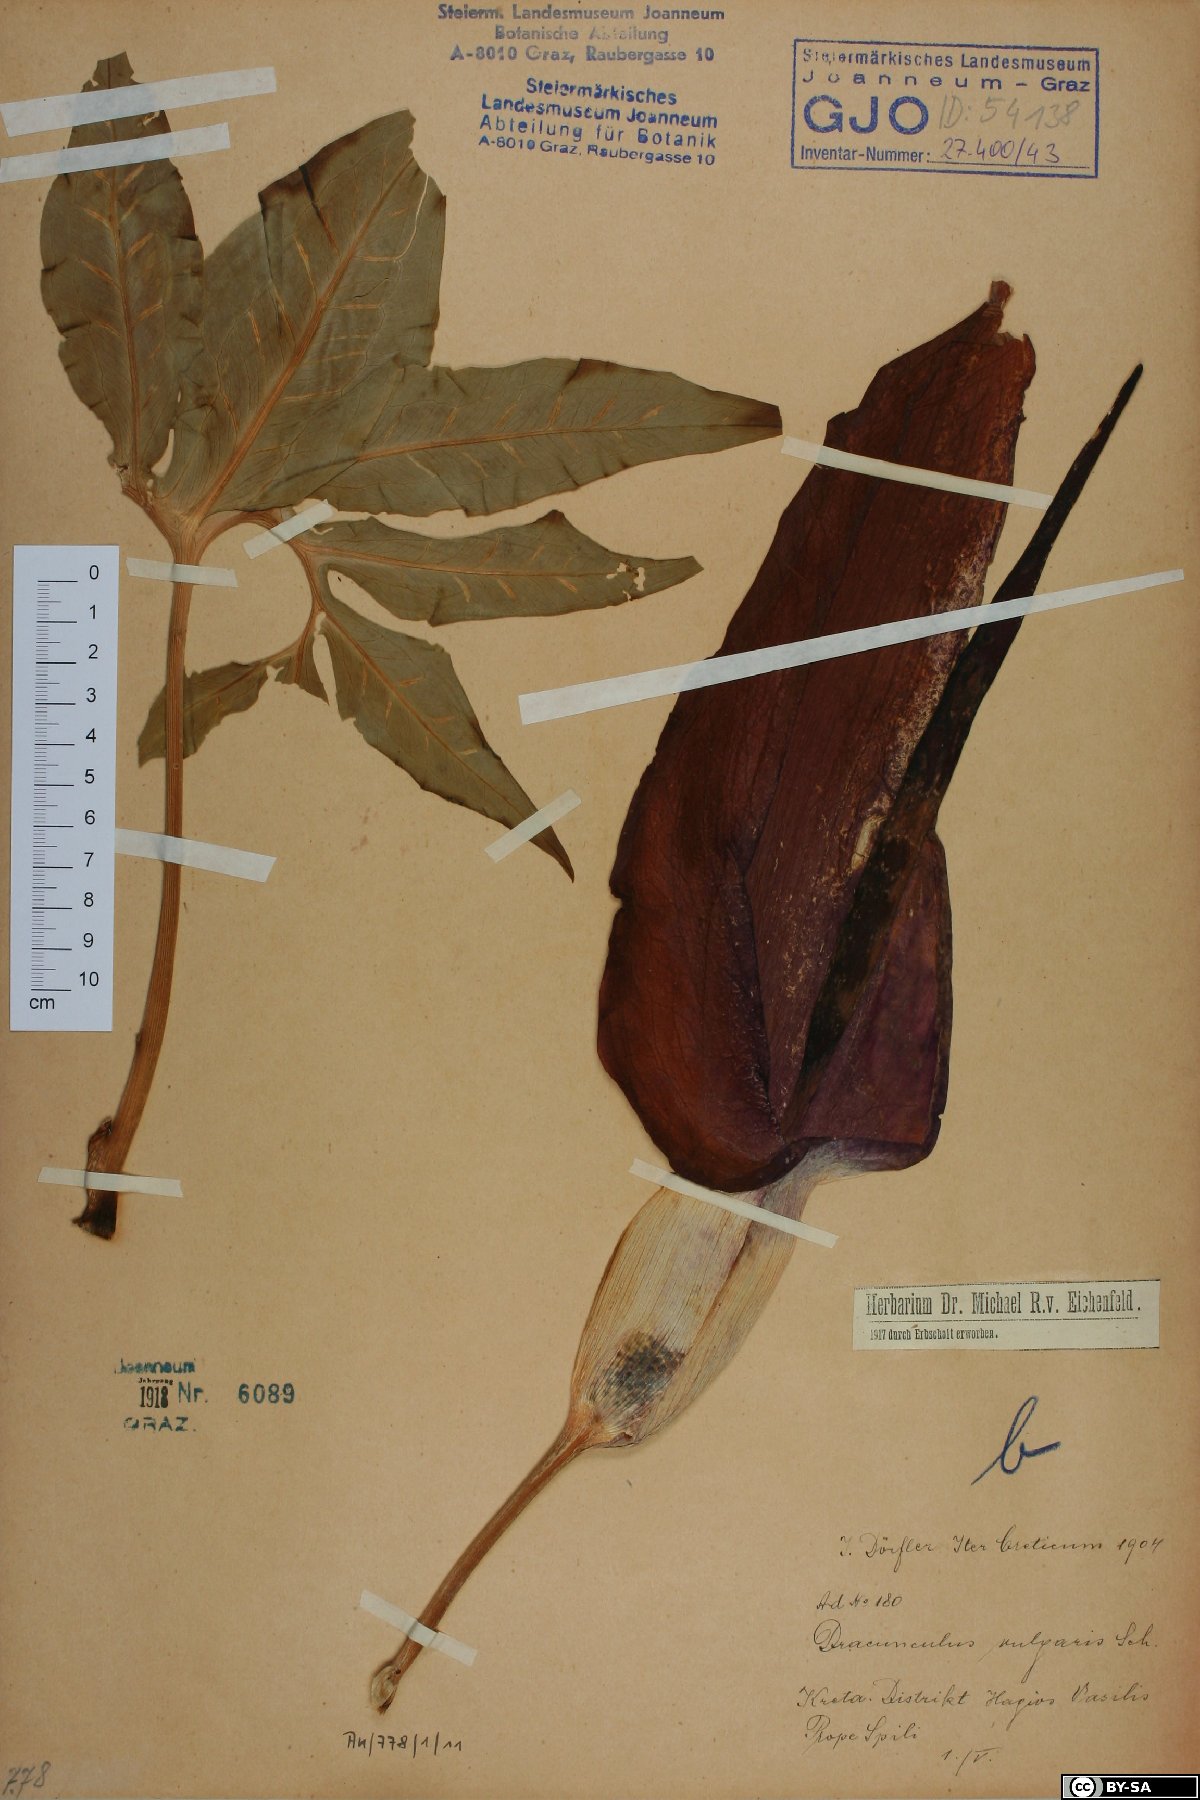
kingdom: Plantae
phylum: Tracheophyta
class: Liliopsida
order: Alismatales
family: Araceae
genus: Dracunculus
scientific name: Dracunculus vulgaris
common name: Dragon arum
